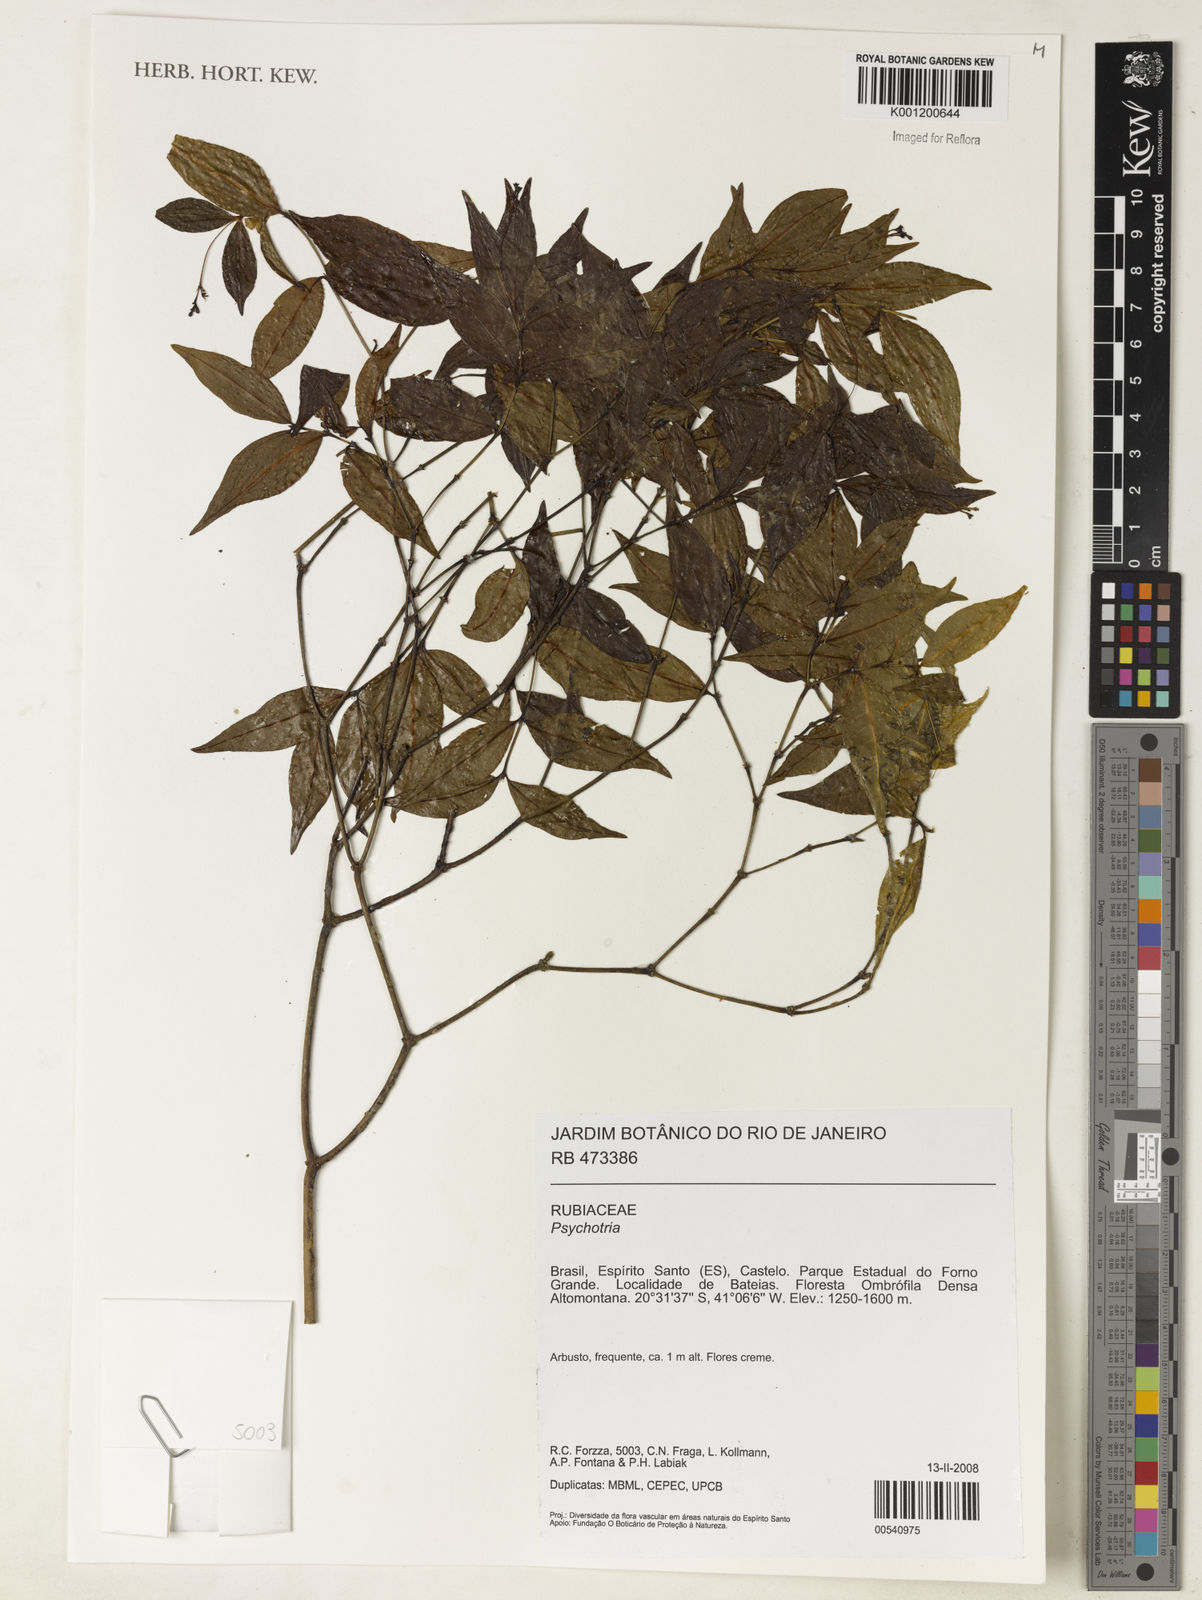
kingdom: Plantae
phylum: Tracheophyta
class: Magnoliopsida
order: Gentianales
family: Rubiaceae
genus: Psychotria
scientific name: Psychotria
